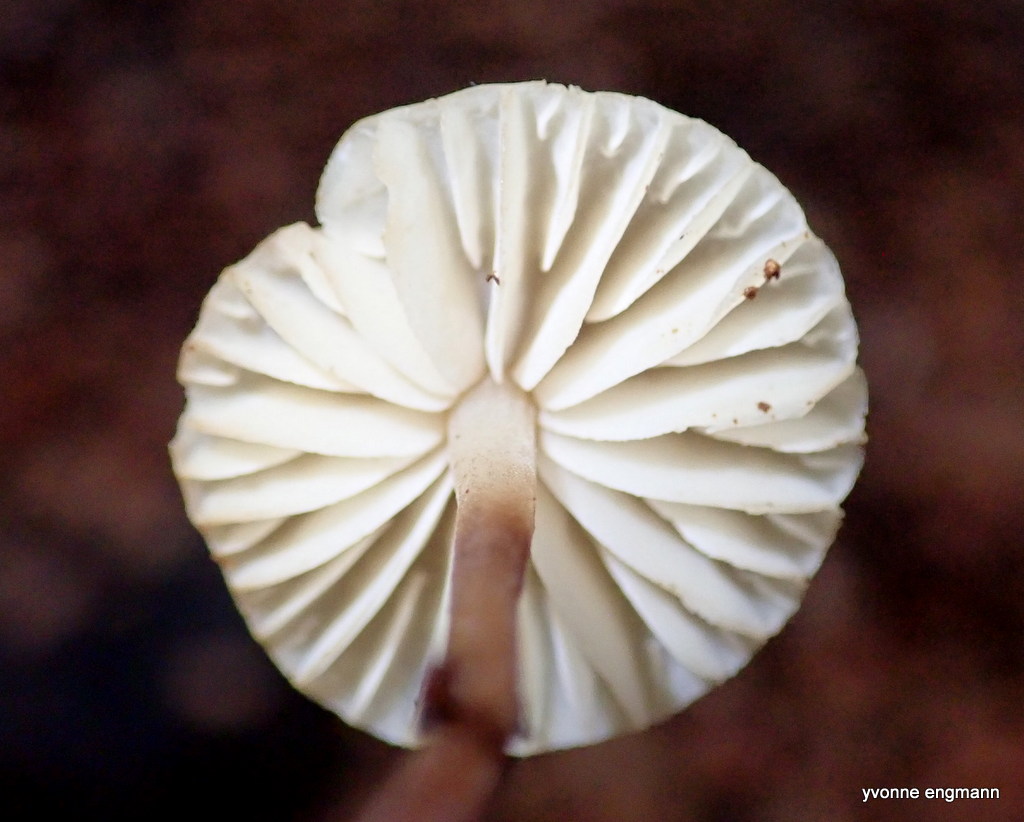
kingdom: Fungi
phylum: Basidiomycota
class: Agaricomycetes
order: Agaricales
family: Marasmiaceae
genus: Marasmius
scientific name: Marasmius torquescens
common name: filtfodet bruskhat
